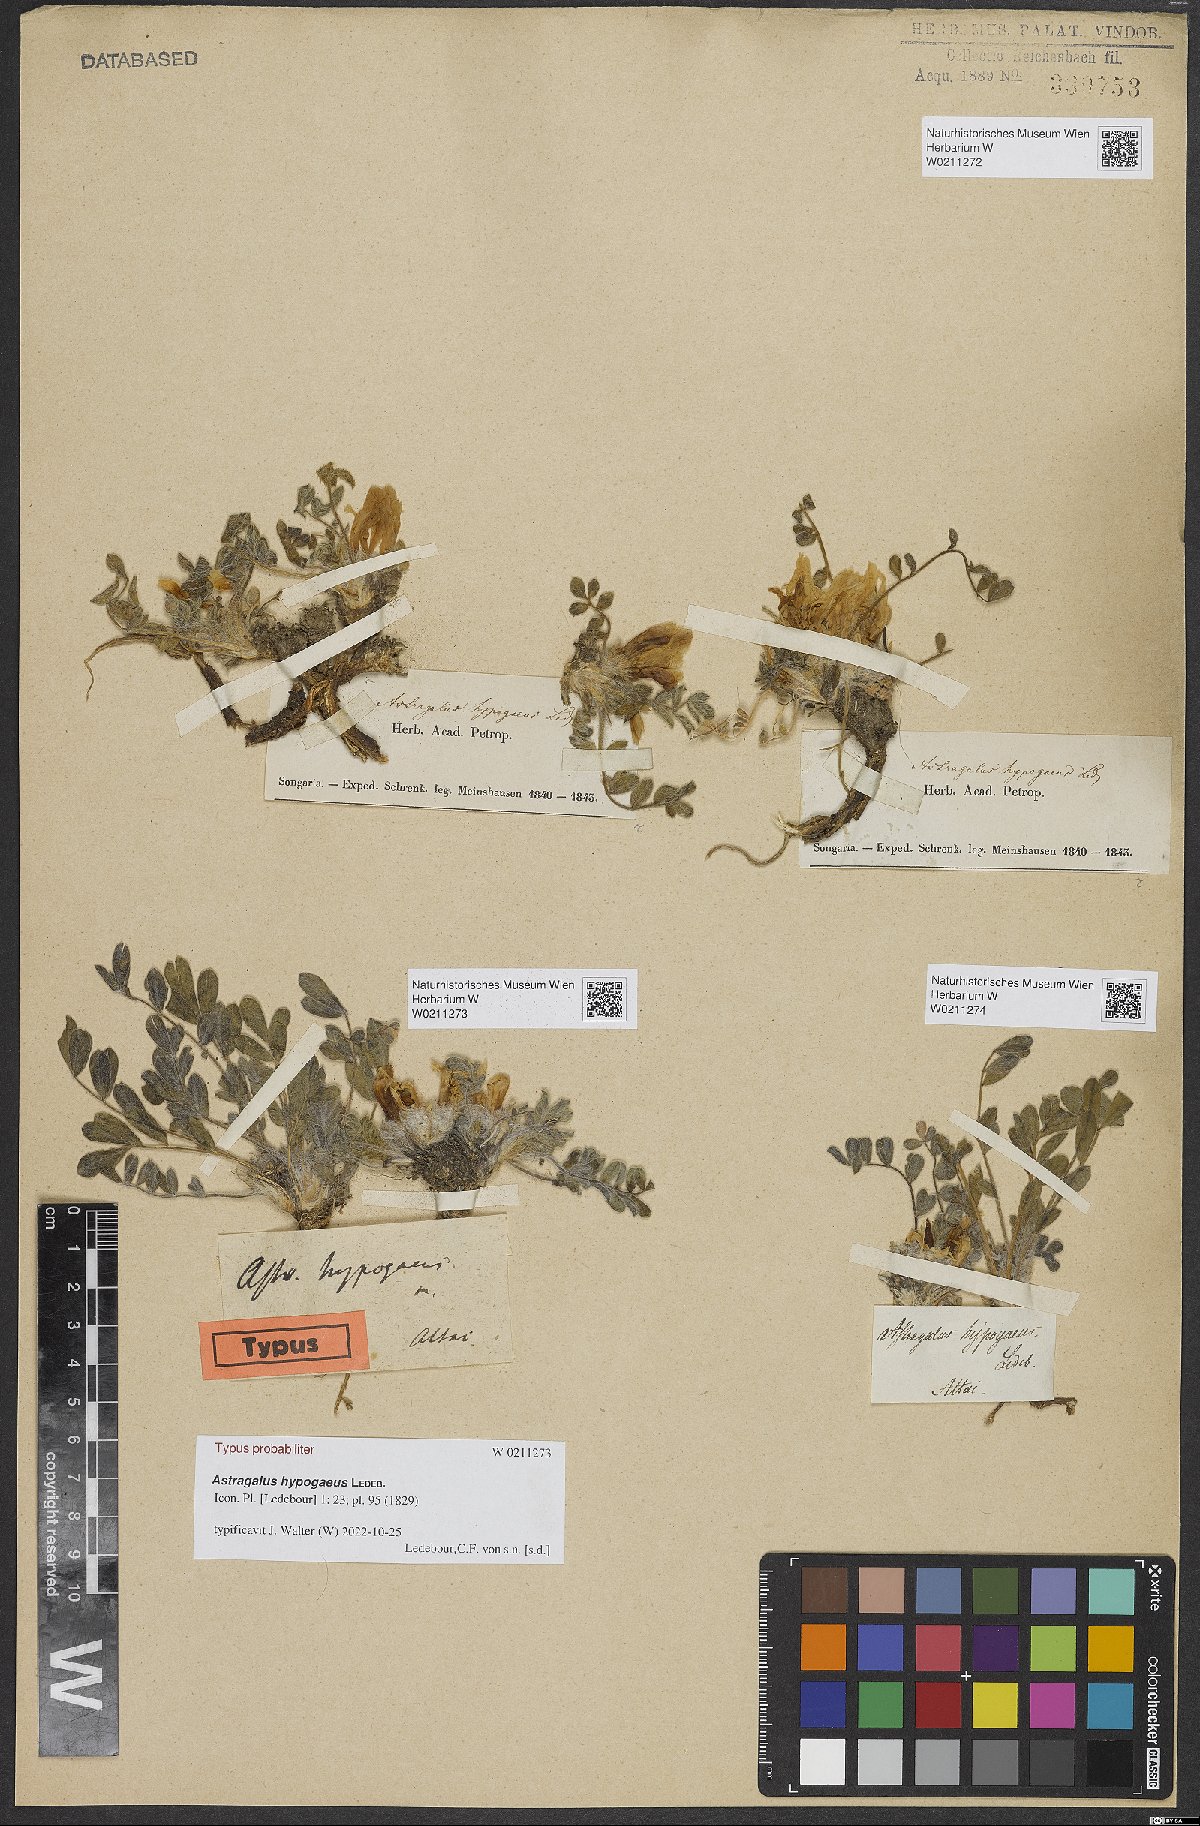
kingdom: Plantae
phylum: Tracheophyta
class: Magnoliopsida
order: Fabales
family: Fabaceae
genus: Astragalus
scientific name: Astragalus hypogaeus
